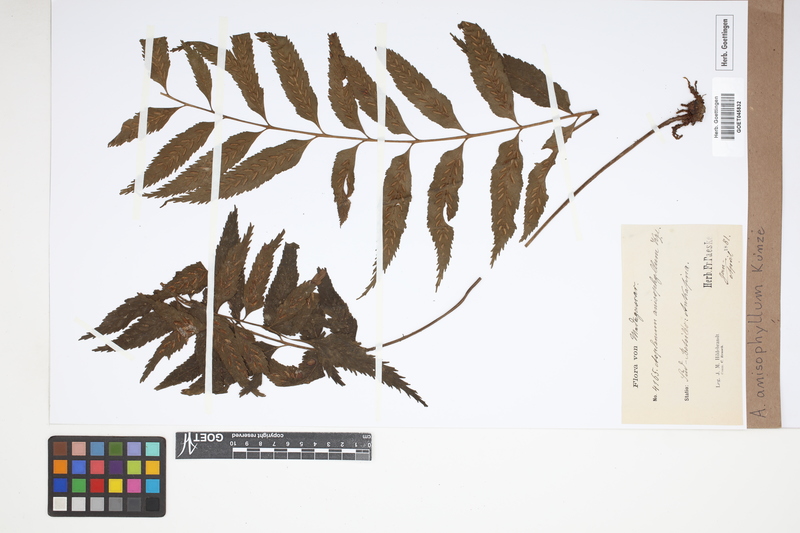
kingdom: Plantae
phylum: Tracheophyta
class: Polypodiopsida
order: Polypodiales
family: Aspleniaceae
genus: Asplenium
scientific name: Asplenium anisophyllum
